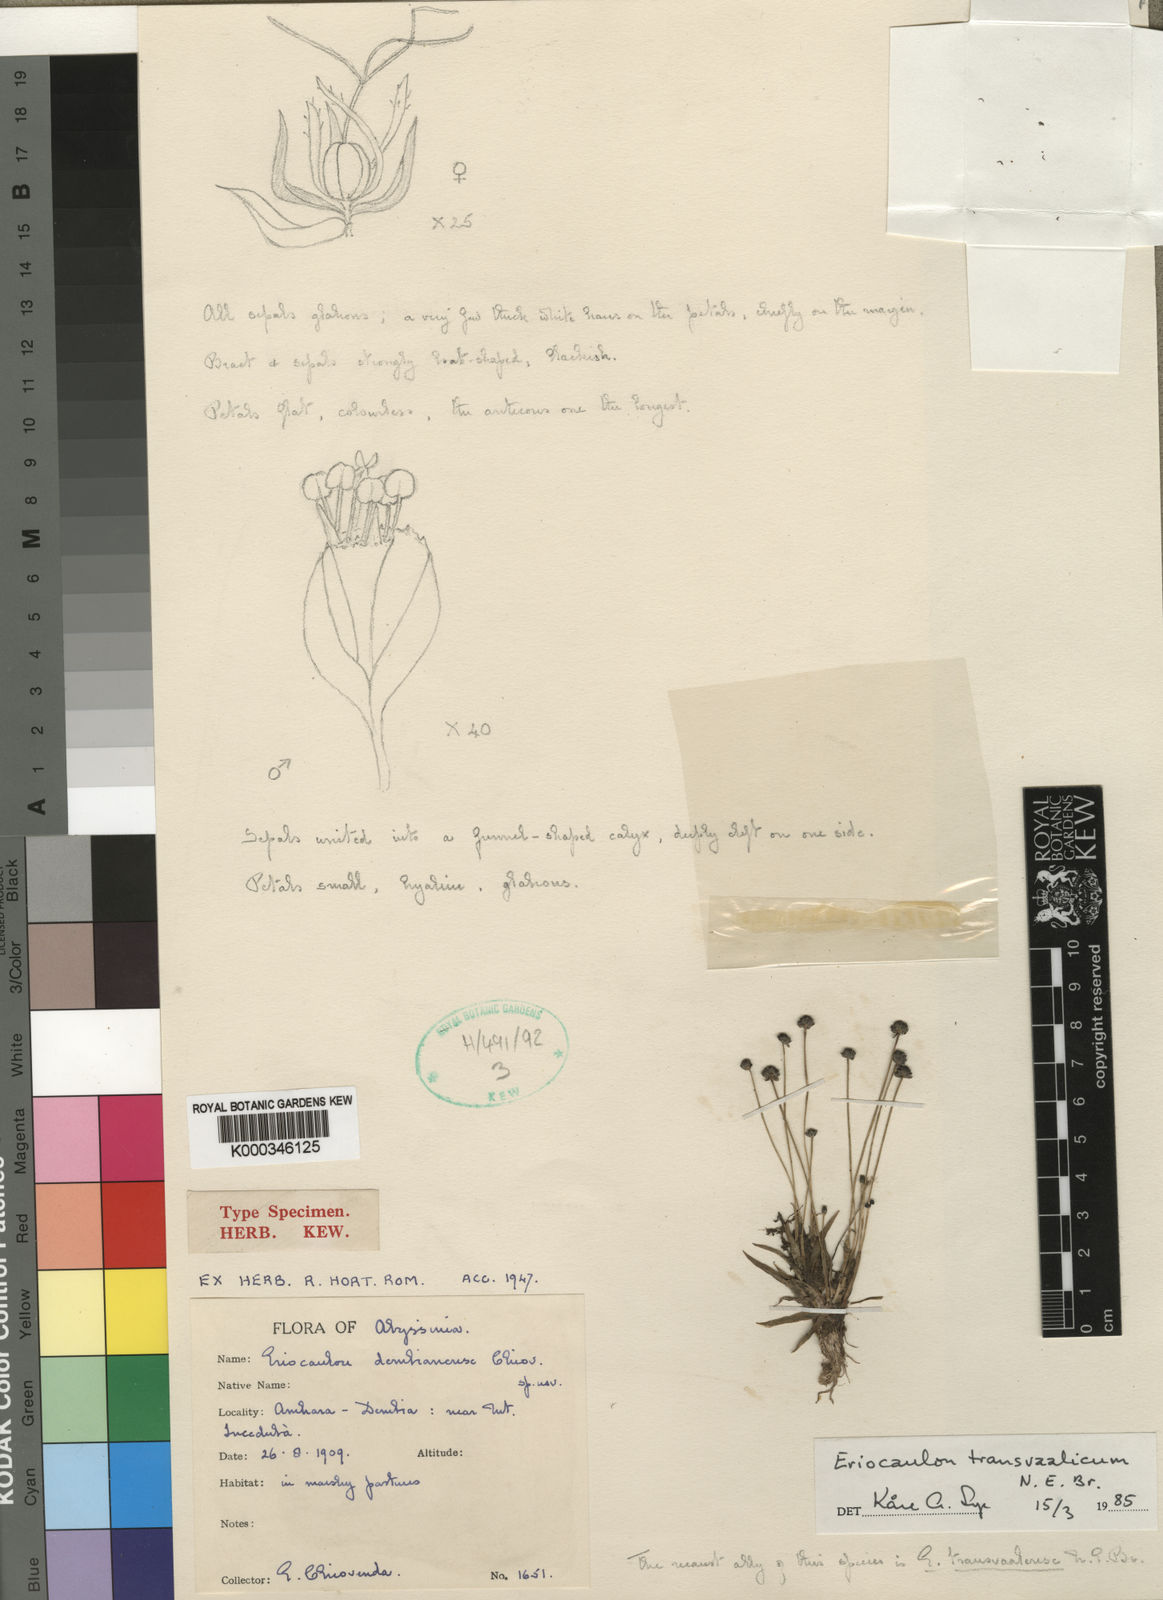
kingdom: Plantae
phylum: Tracheophyta
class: Liliopsida
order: Poales
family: Eriocaulaceae
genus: Eriocaulon
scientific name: Eriocaulon transvaalicum
